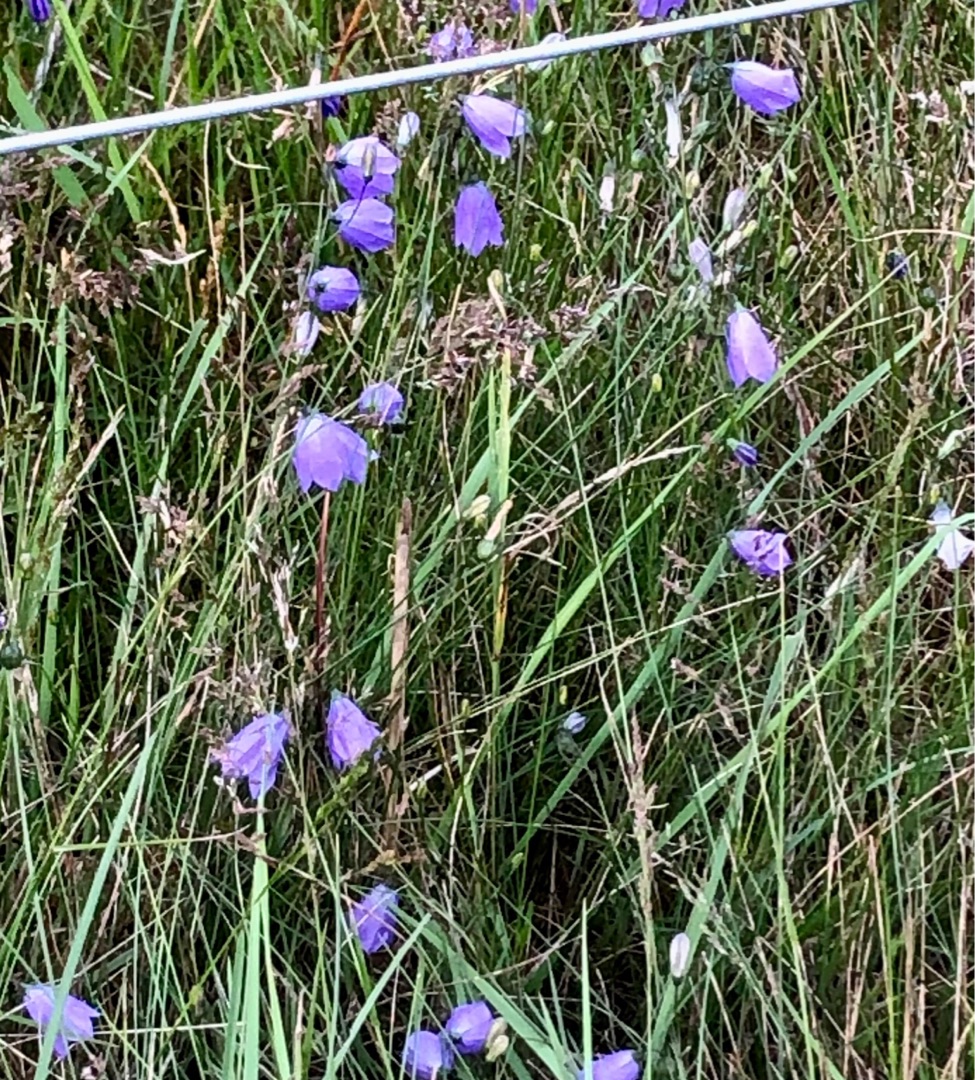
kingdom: Plantae
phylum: Tracheophyta
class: Magnoliopsida
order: Asterales
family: Campanulaceae
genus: Campanula
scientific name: Campanula rotundifolia
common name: Liden klokke
